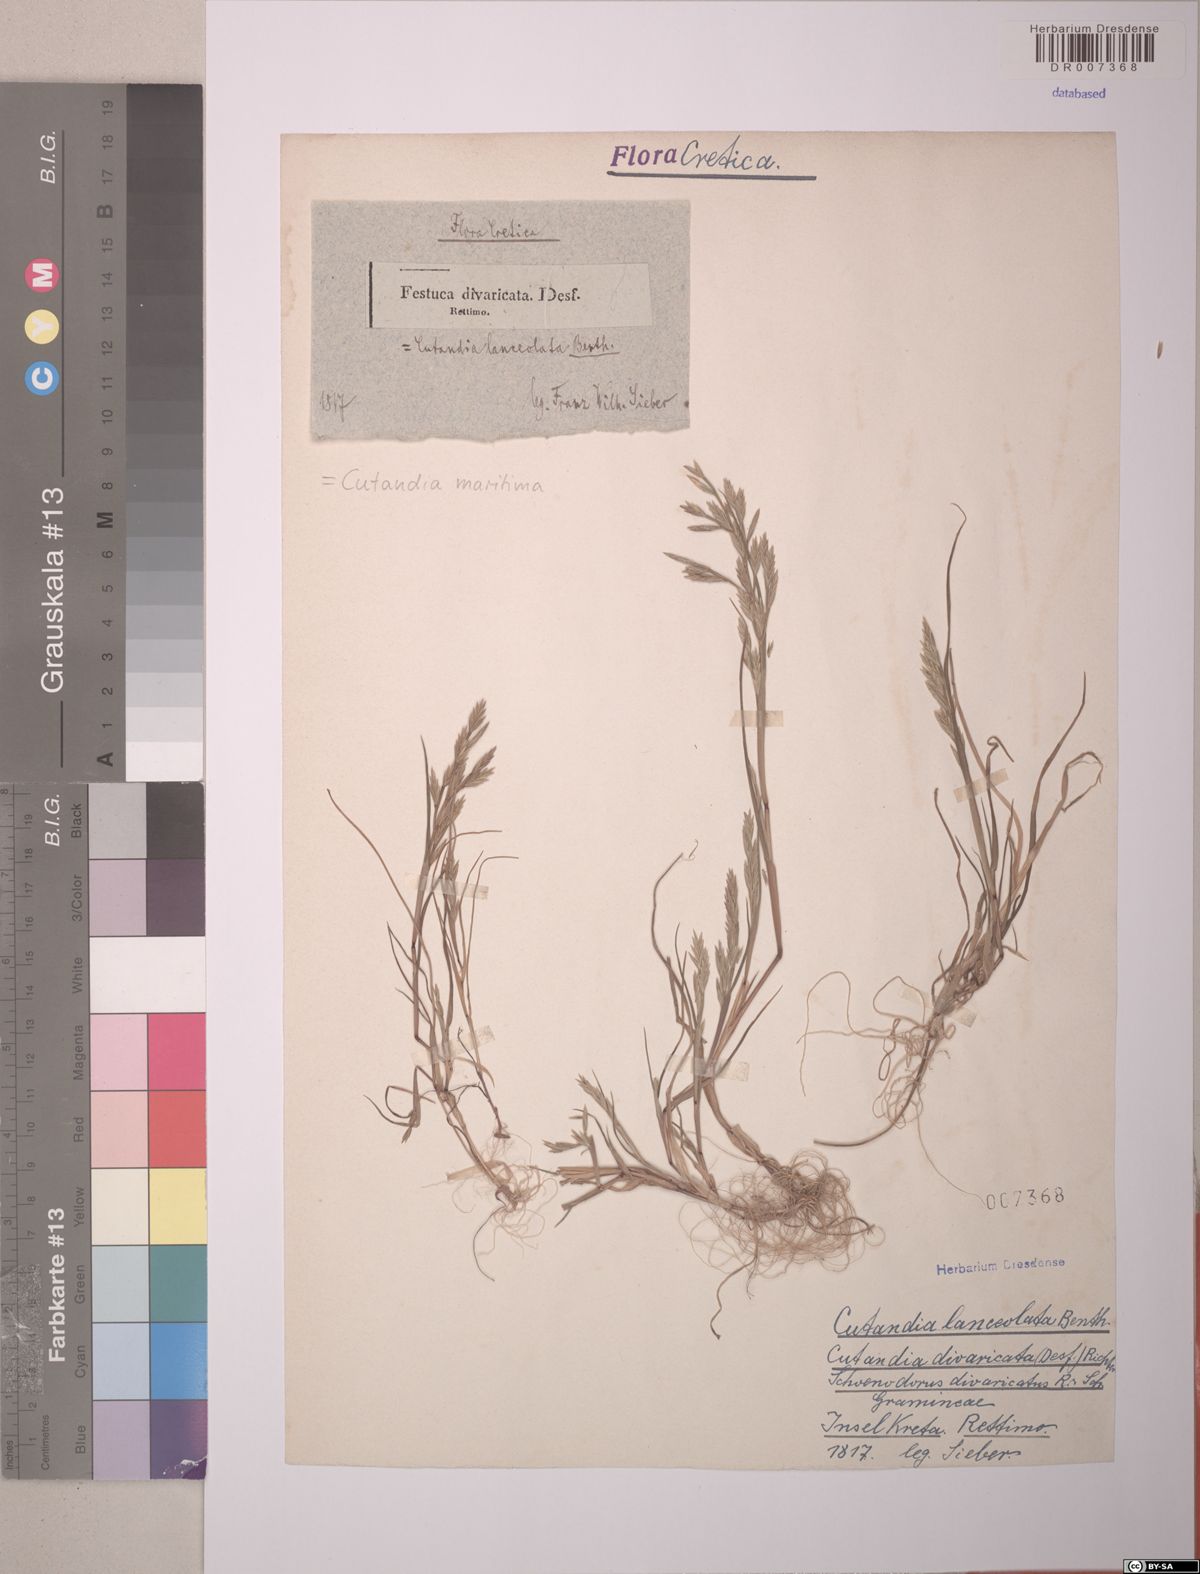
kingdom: Plantae
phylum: Tracheophyta
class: Liliopsida
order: Poales
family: Poaceae
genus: Cutandia
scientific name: Cutandia maritima
